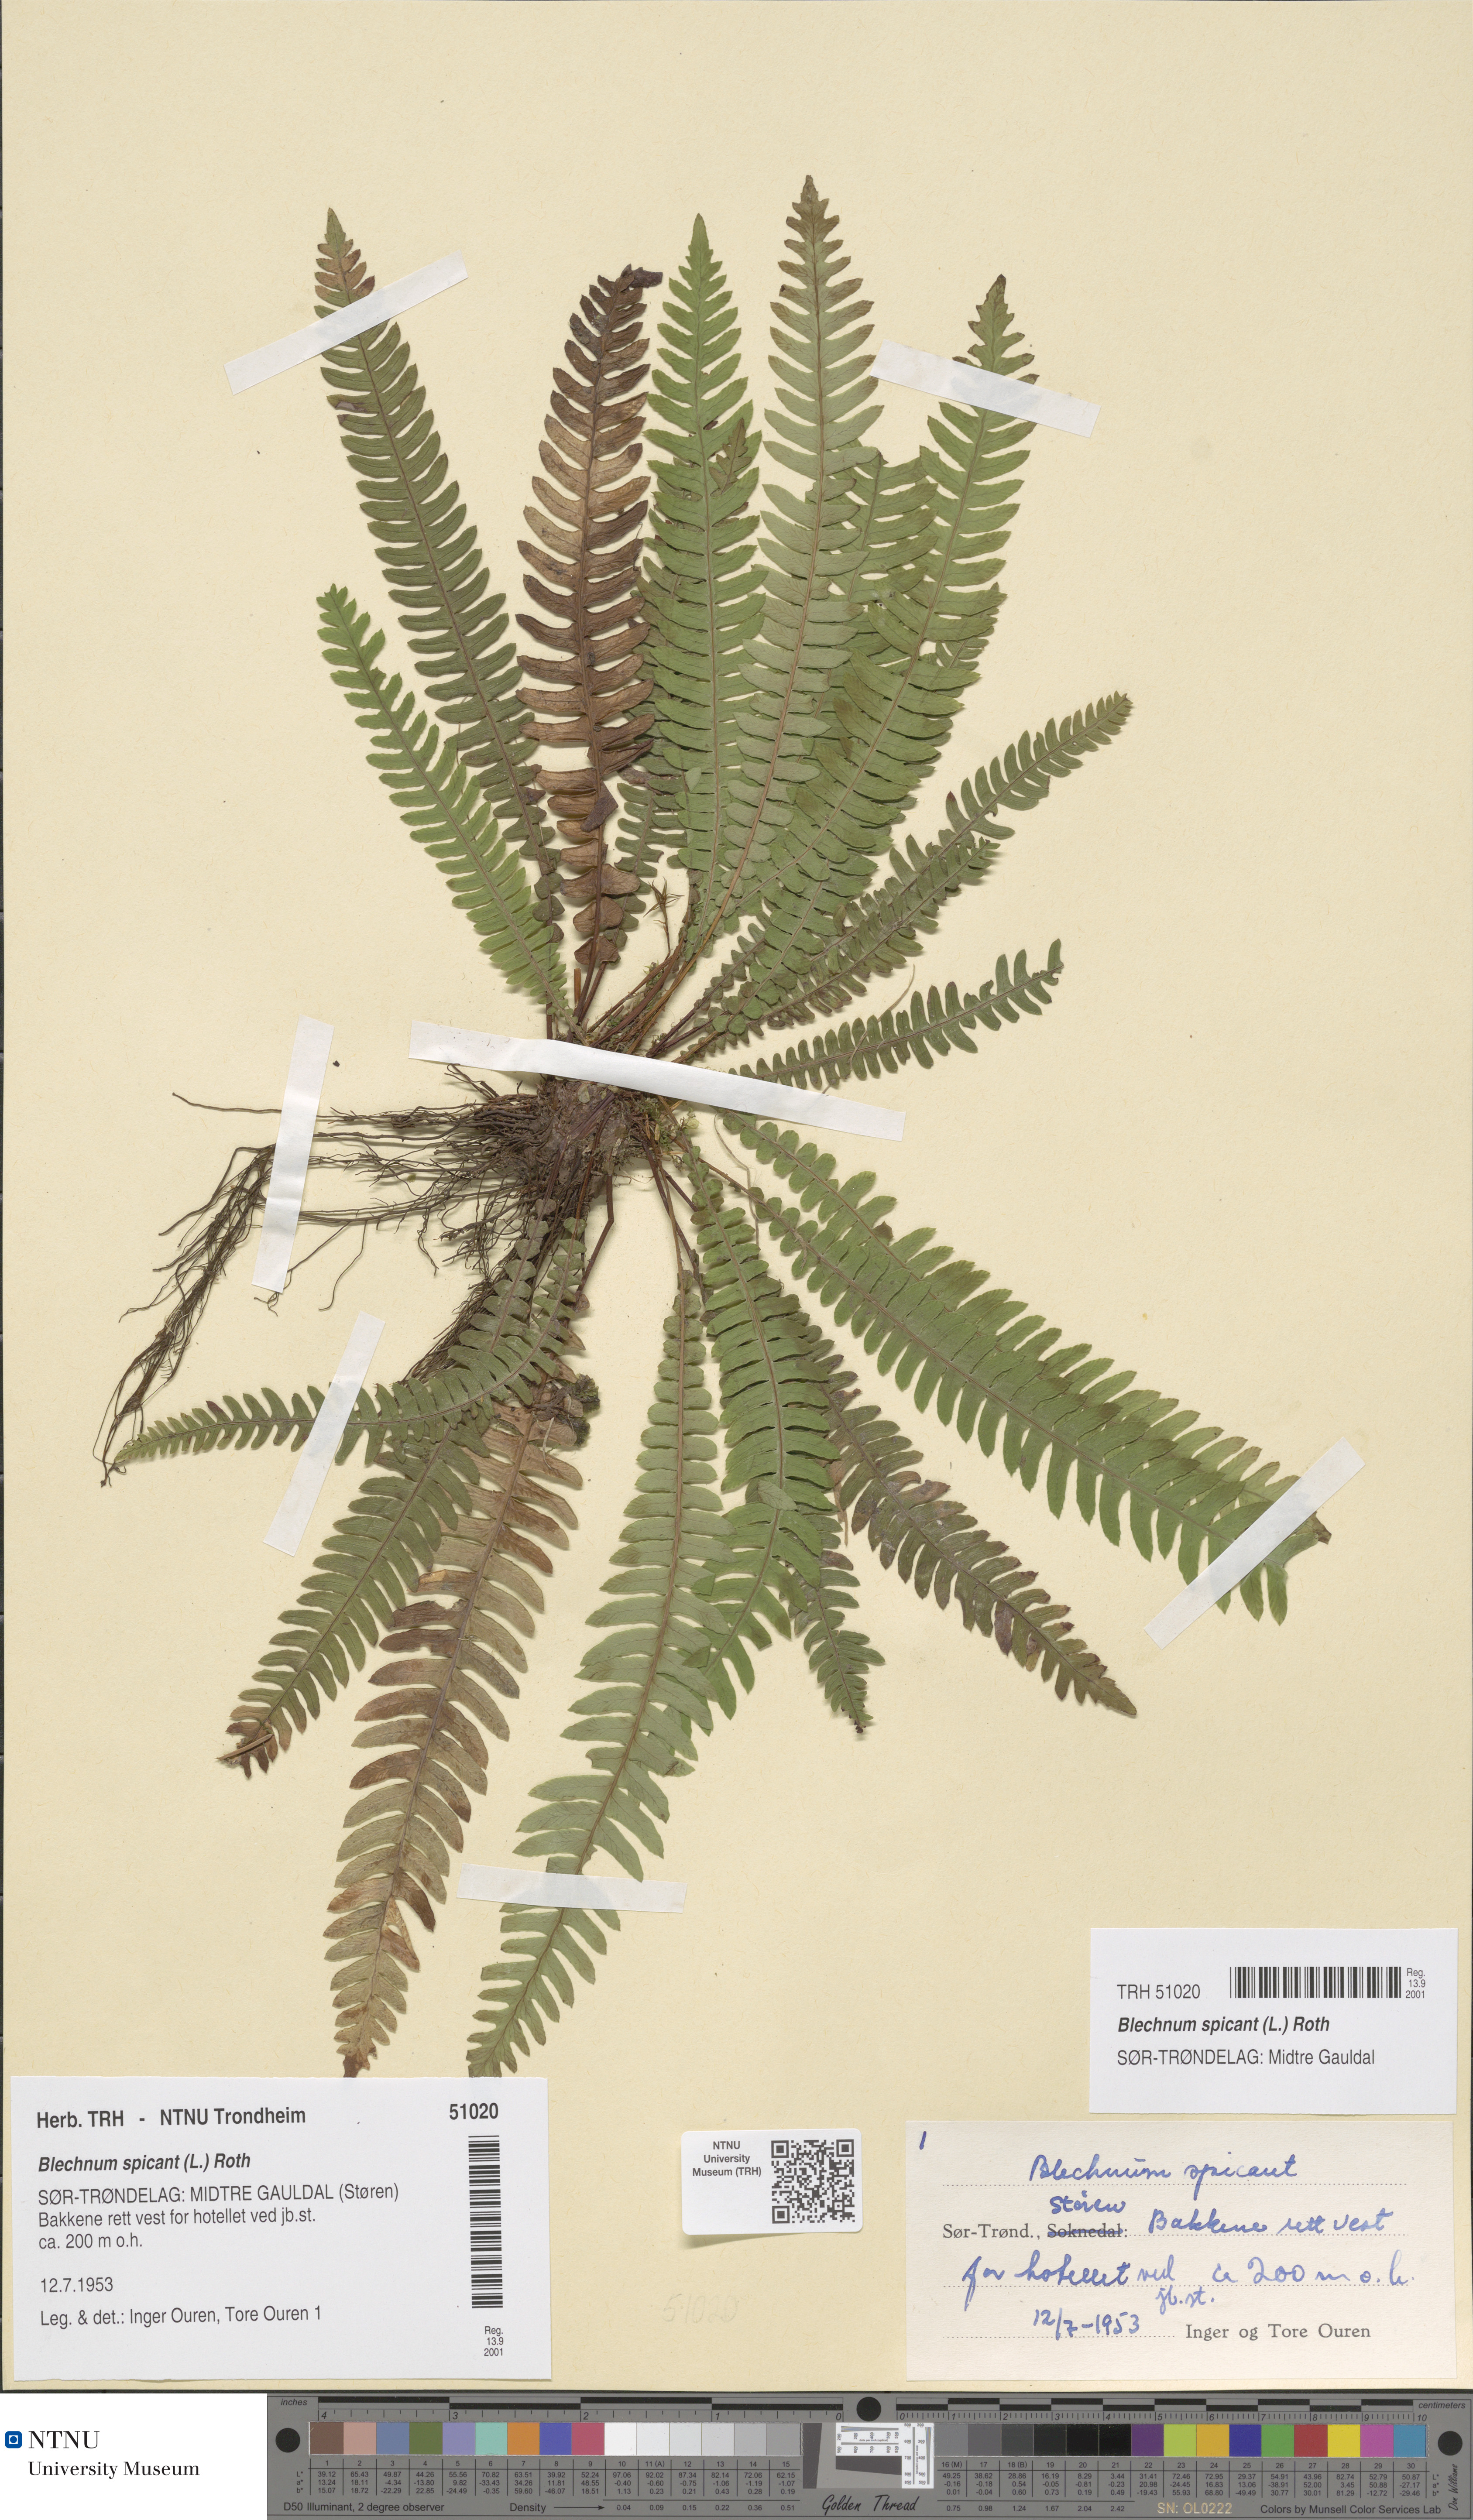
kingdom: Plantae
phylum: Tracheophyta
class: Polypodiopsida
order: Polypodiales
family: Blechnaceae
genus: Struthiopteris
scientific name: Struthiopteris spicant
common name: Deer fern
